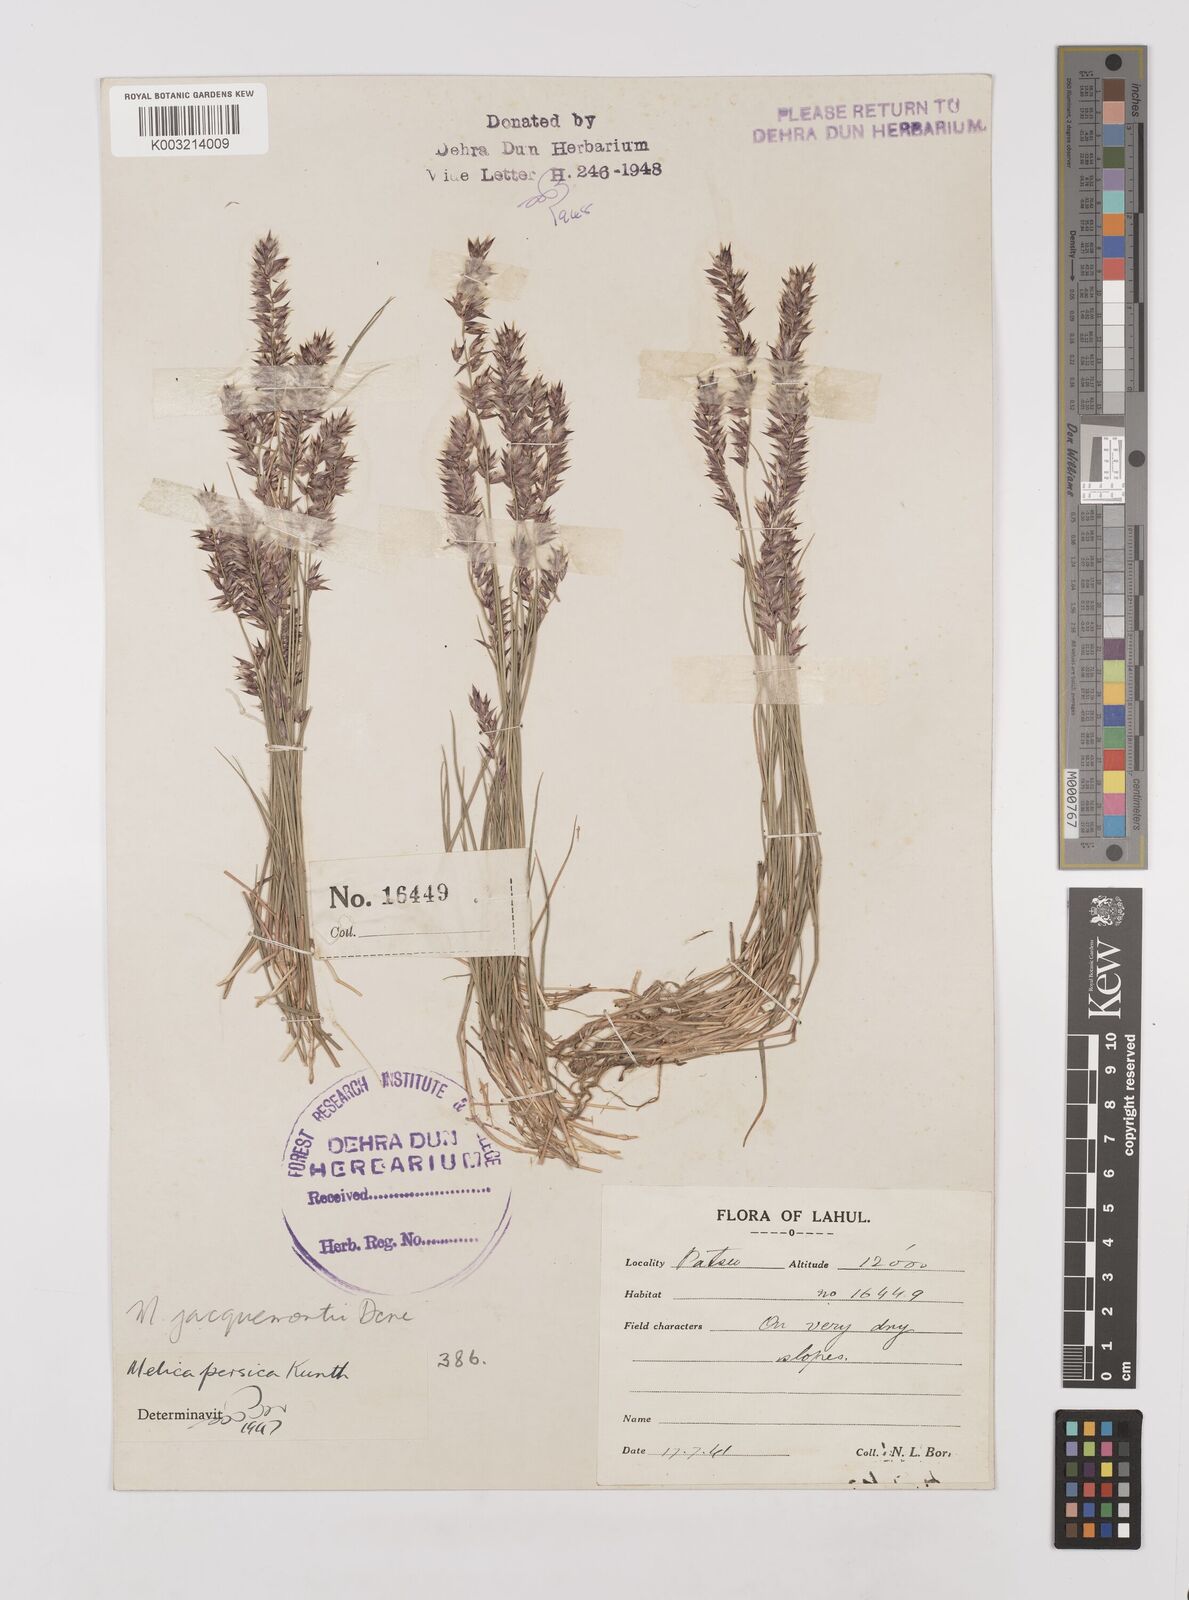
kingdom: Plantae
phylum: Tracheophyta
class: Liliopsida
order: Poales
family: Poaceae
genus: Melica
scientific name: Melica persica
